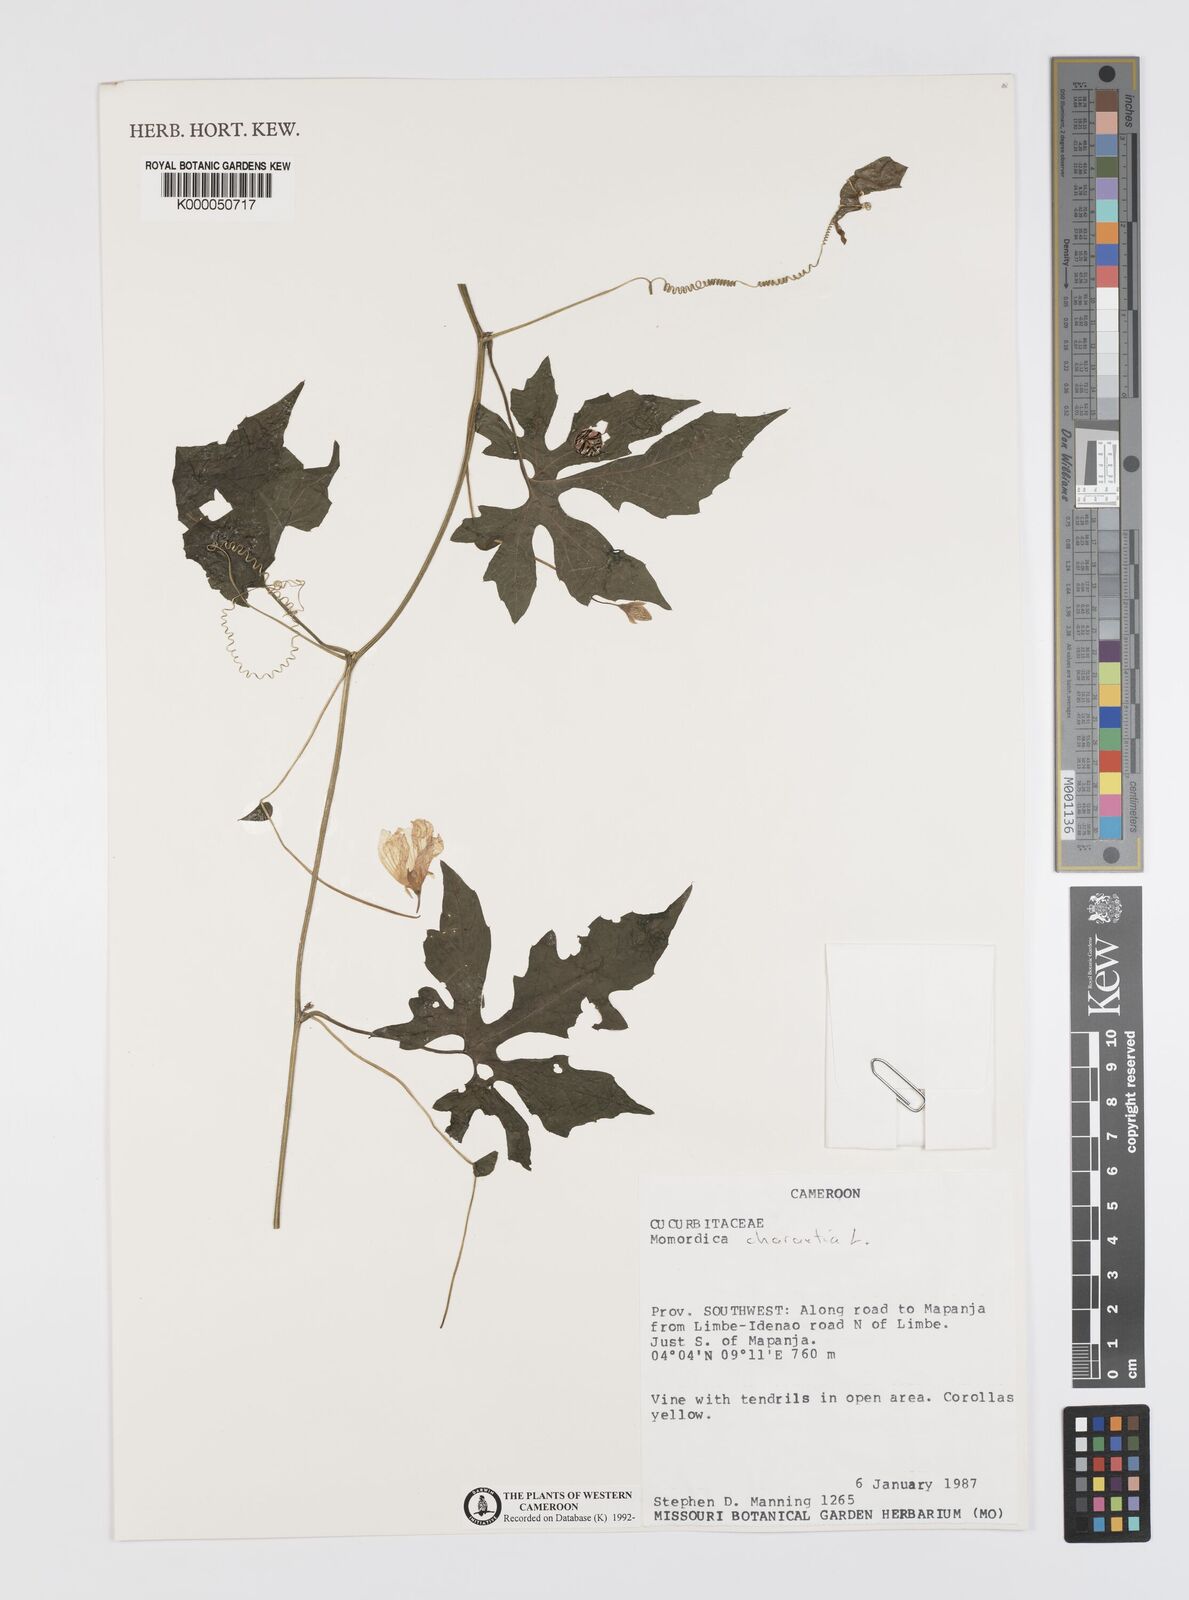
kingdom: Plantae
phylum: Tracheophyta
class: Magnoliopsida
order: Cucurbitales
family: Cucurbitaceae
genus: Momordica
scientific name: Momordica charantia
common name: Balsampear
